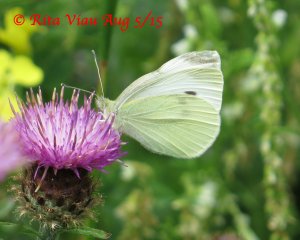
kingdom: Animalia
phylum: Arthropoda
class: Insecta
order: Lepidoptera
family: Pieridae
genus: Pieris
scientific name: Pieris rapae
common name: Cabbage White
